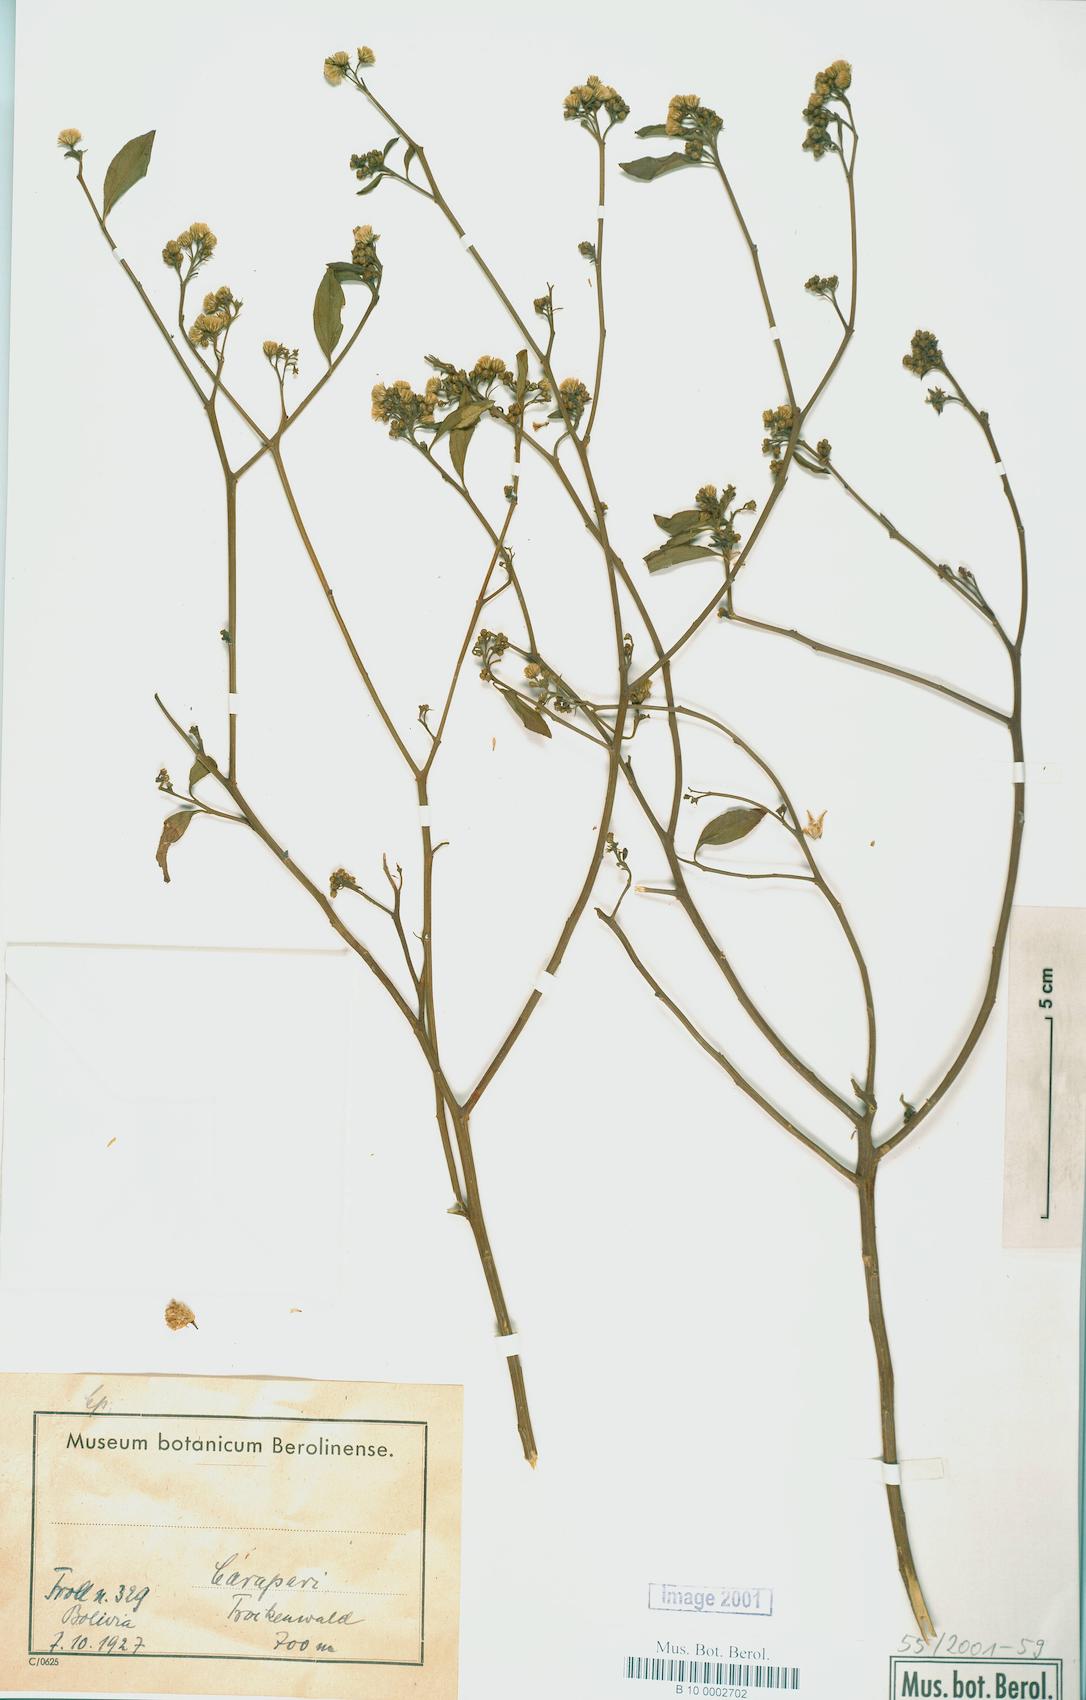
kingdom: Plantae
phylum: Tracheophyta
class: Magnoliopsida
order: Asterales
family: Asteraceae
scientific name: Asteraceae
